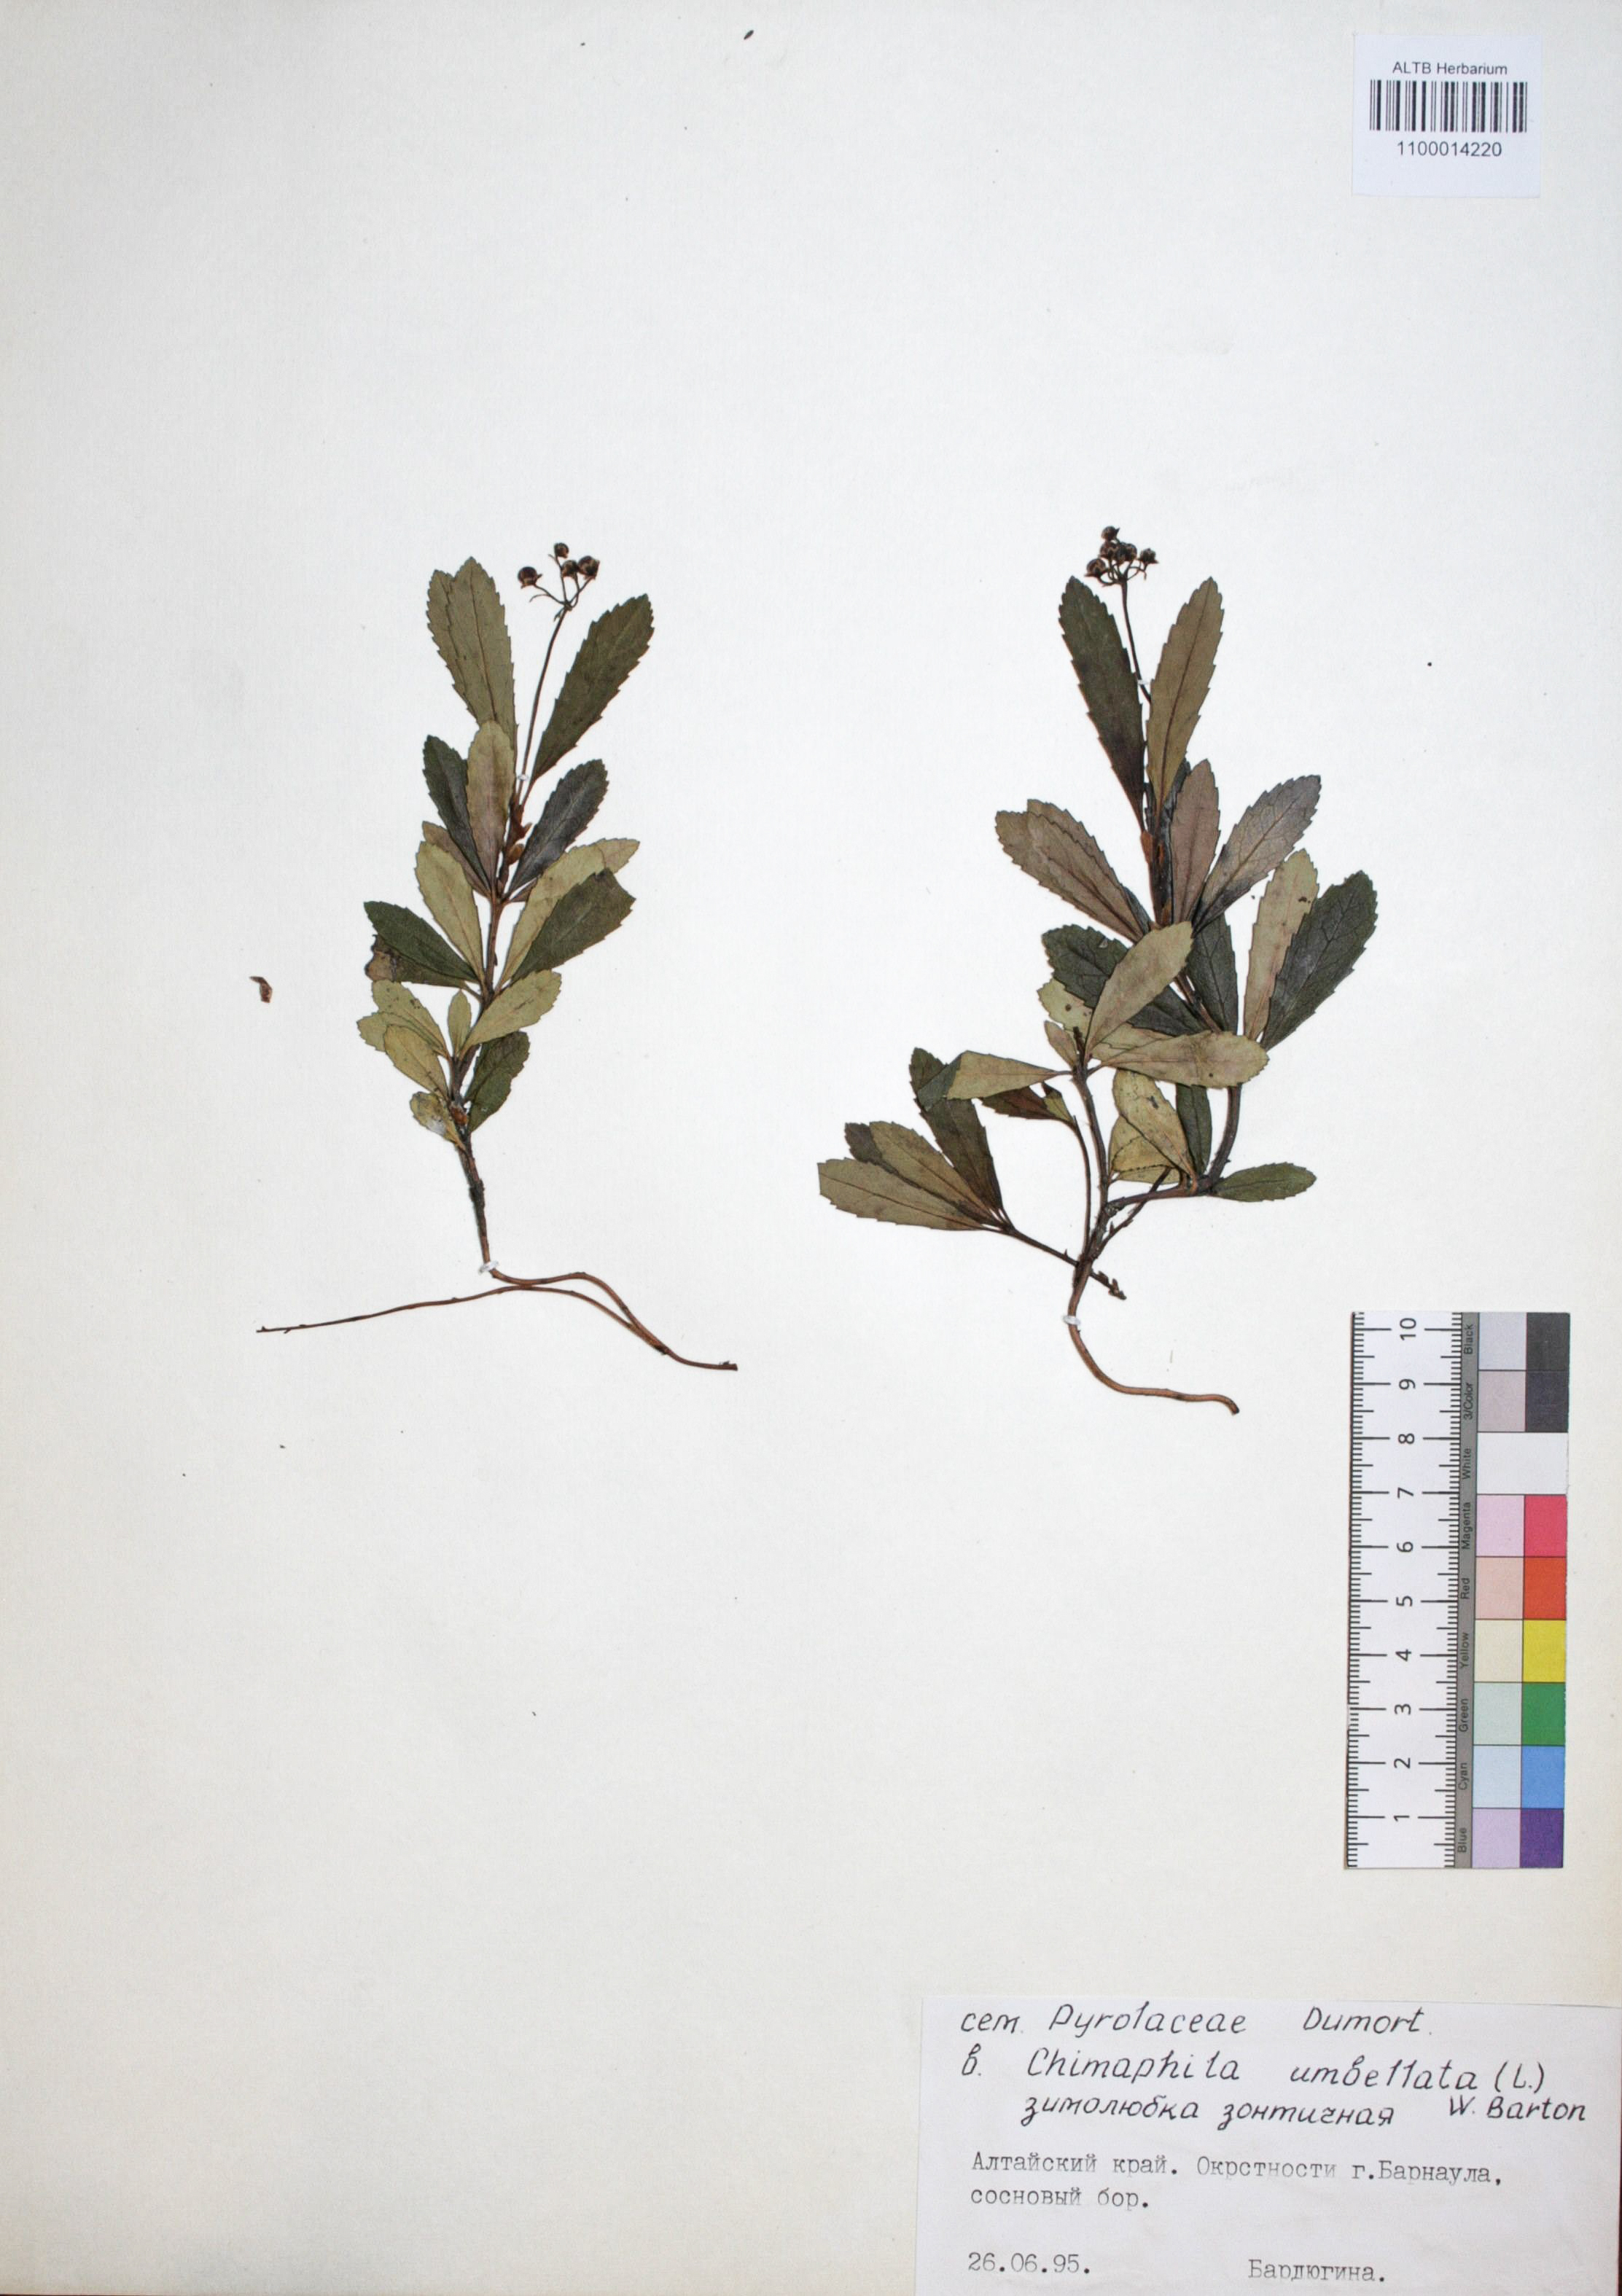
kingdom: Plantae
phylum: Tracheophyta
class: Magnoliopsida
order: Ericales
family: Ericaceae
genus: Chimaphila
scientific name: Chimaphila umbellata
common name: Pipsissewa
